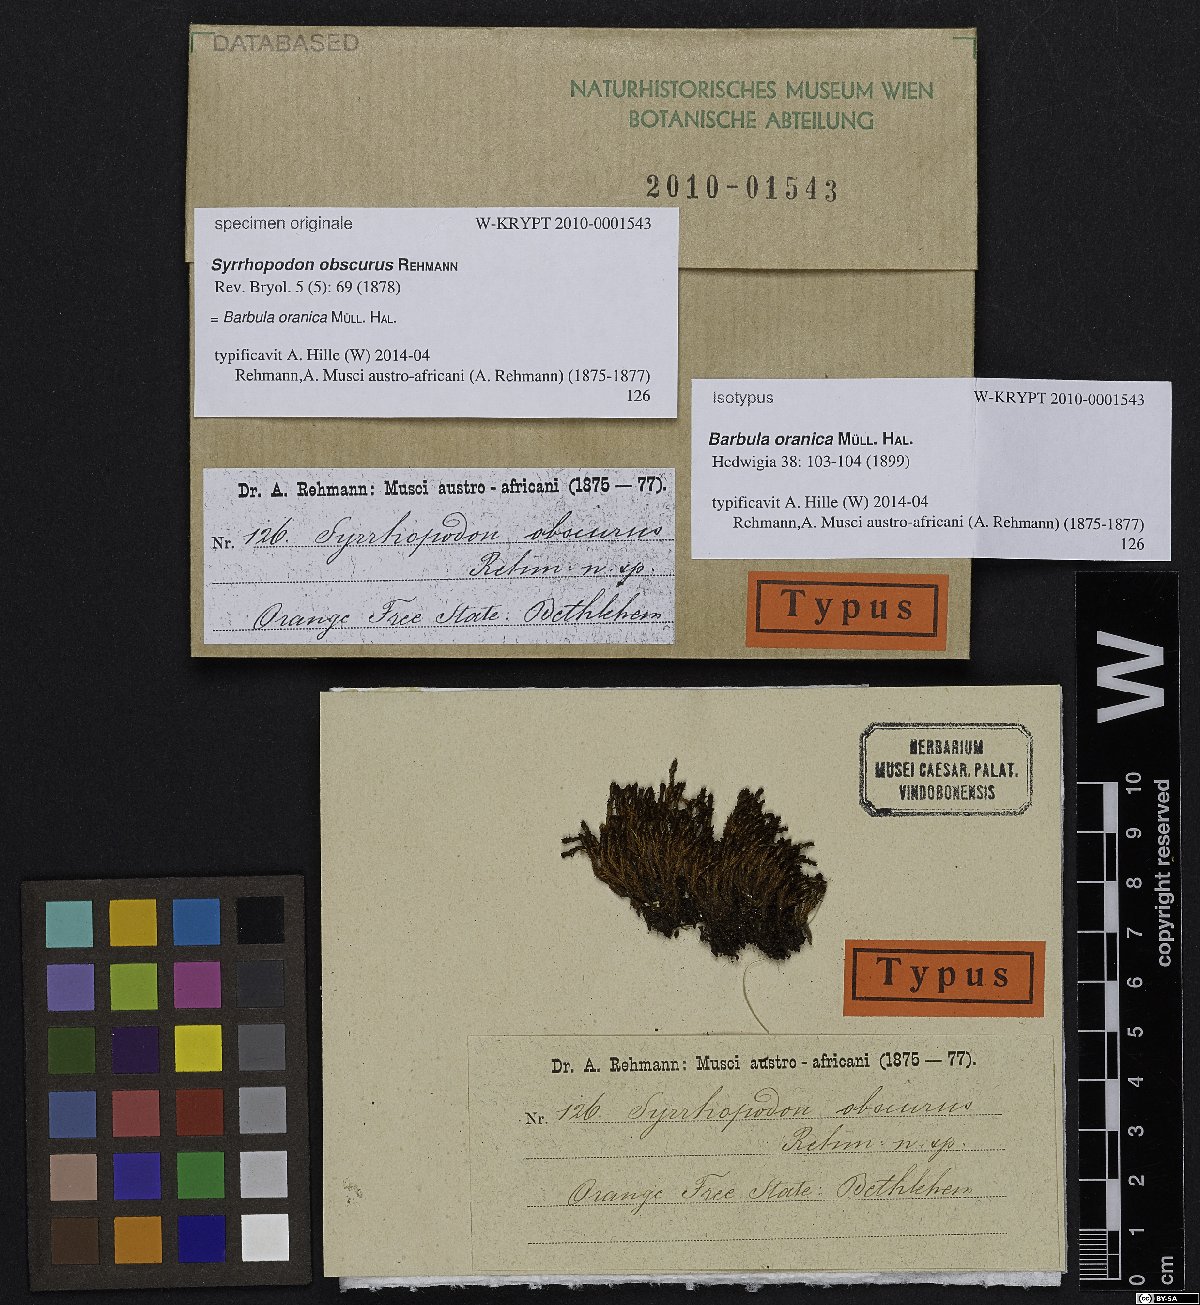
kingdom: Plantae
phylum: Bryophyta
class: Bryopsida
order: Pottiales
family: Pottiaceae
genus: Syntrichia
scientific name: Syntrichia fragilis
